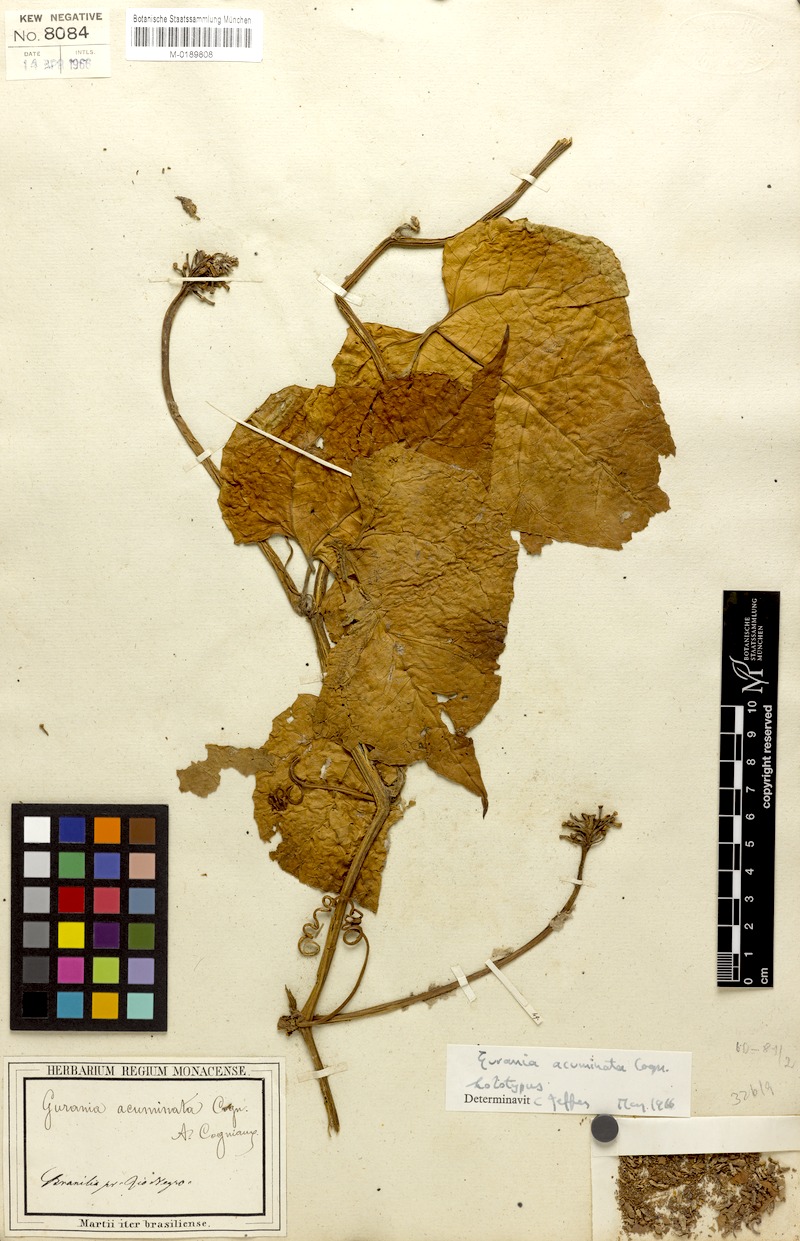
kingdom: Plantae
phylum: Tracheophyta
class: Magnoliopsida
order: Cucurbitales
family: Cucurbitaceae
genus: Gurania
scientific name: Gurania acuminata
